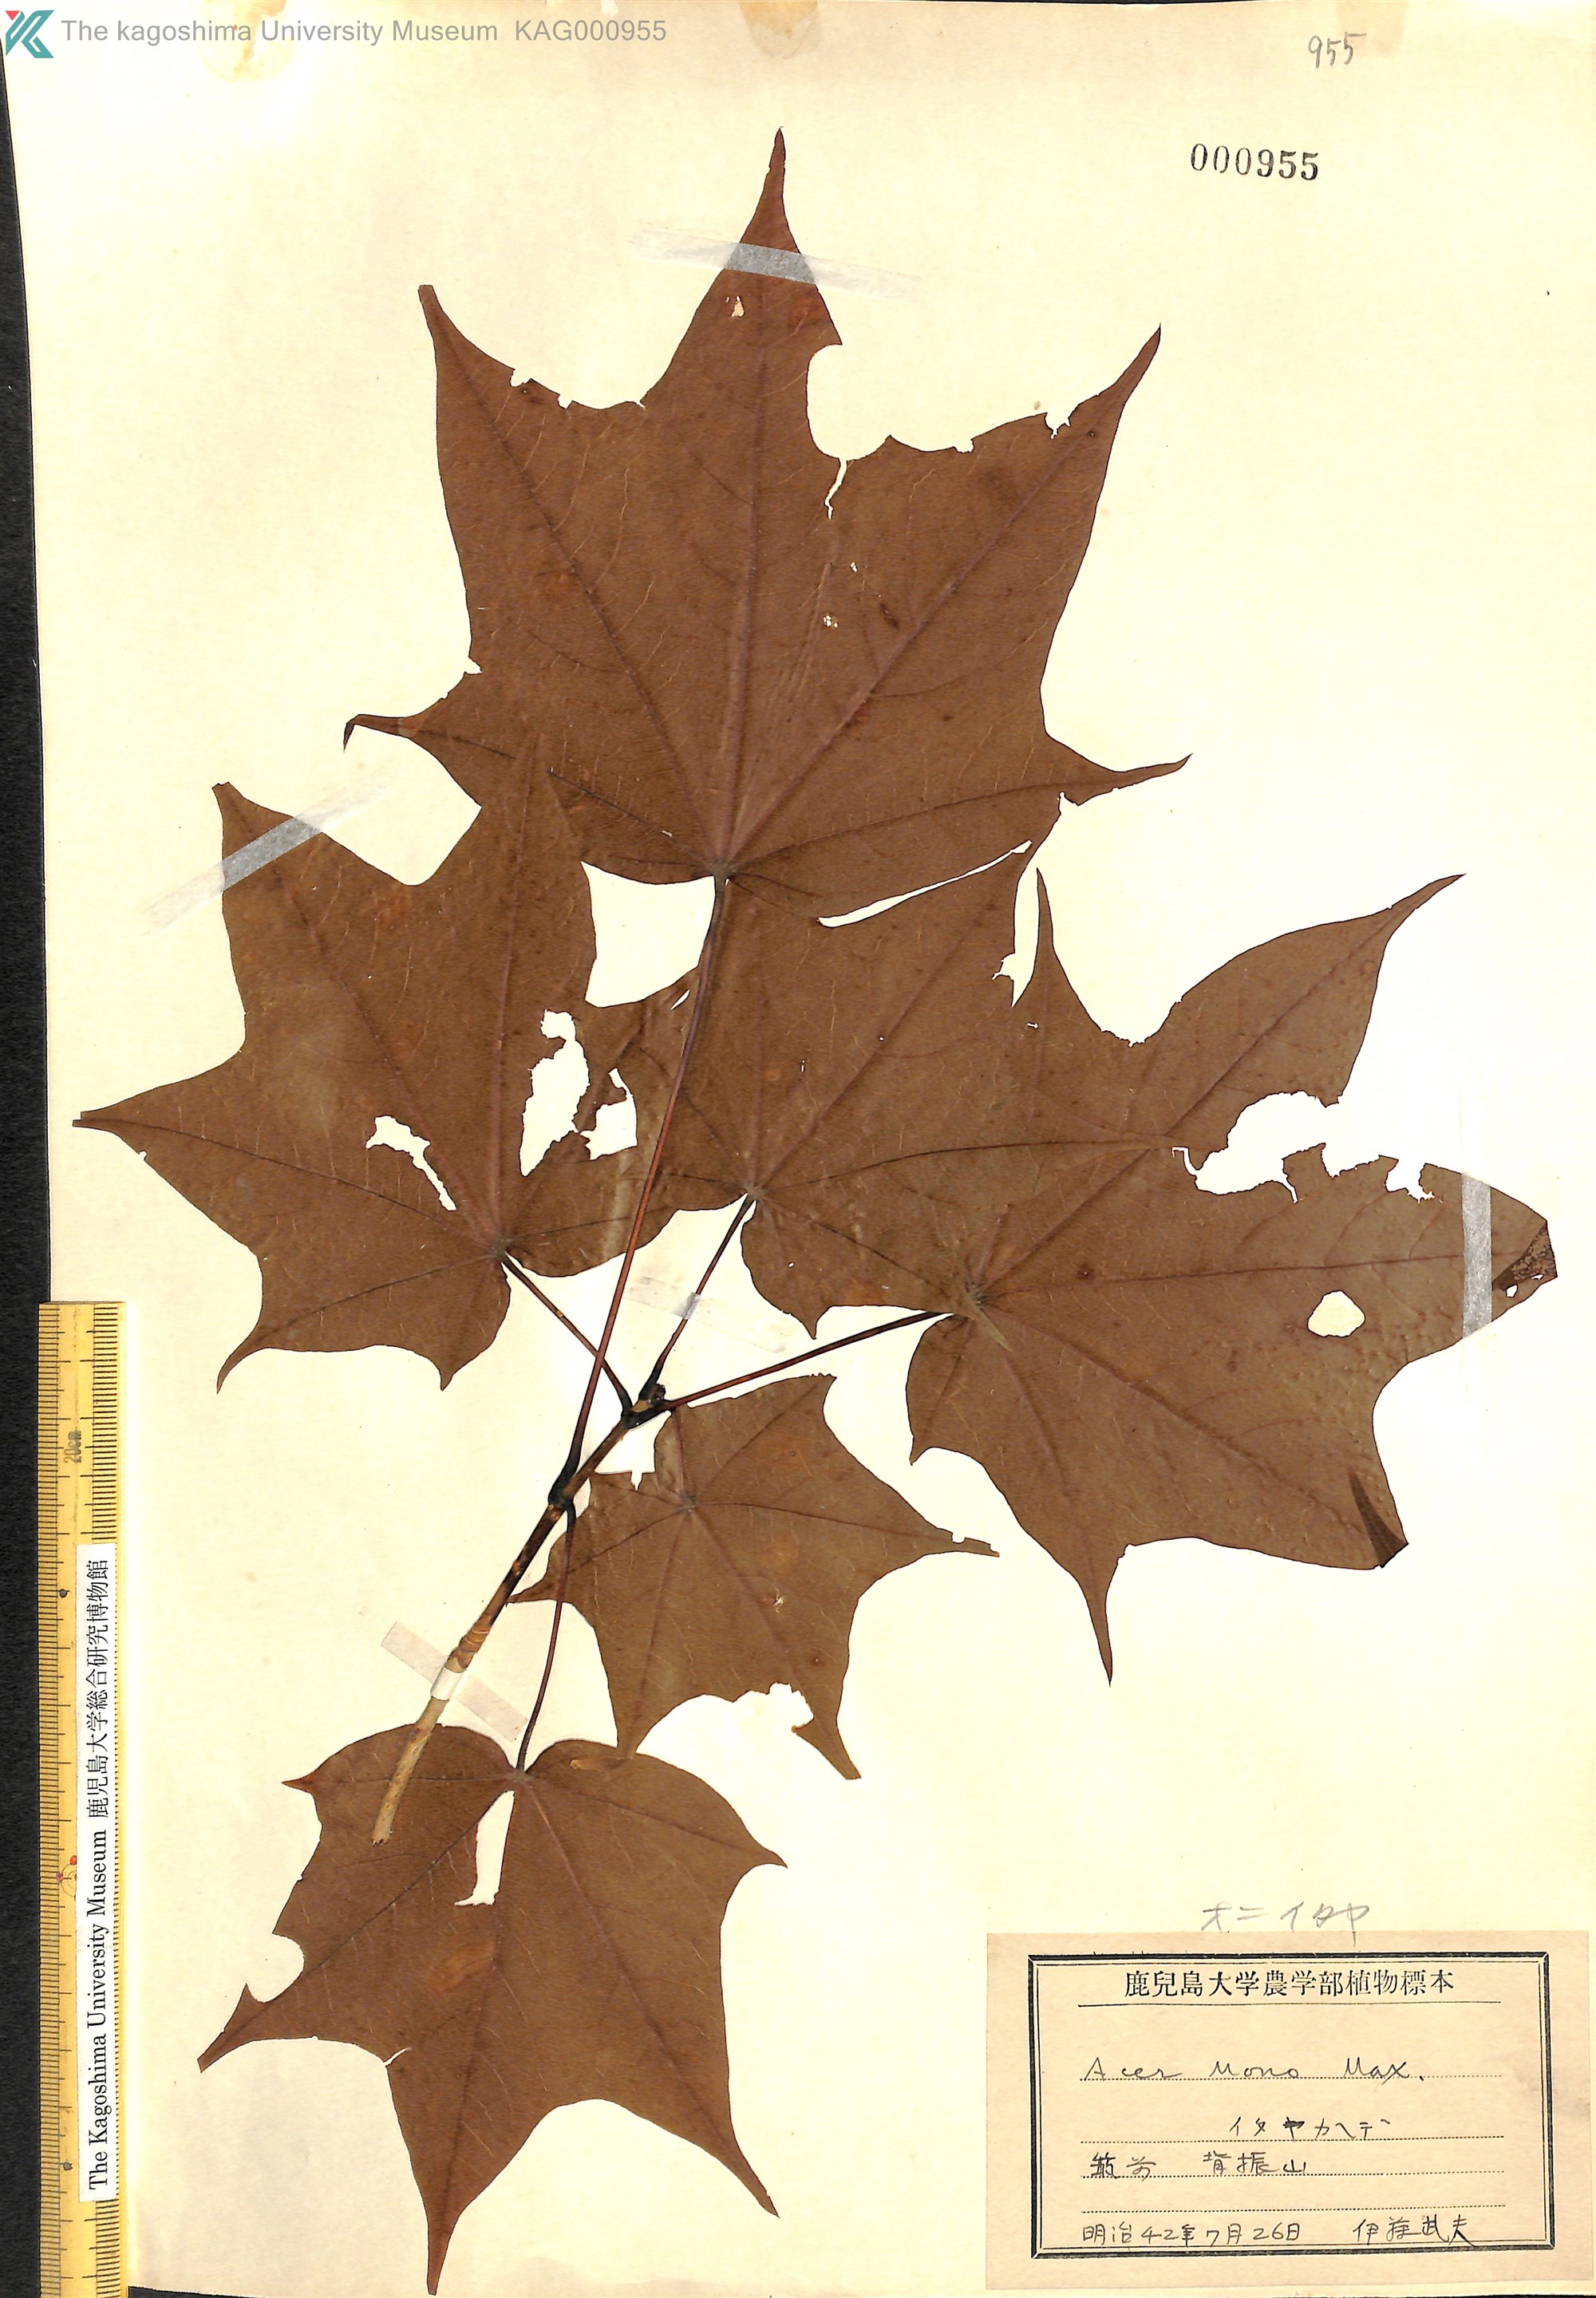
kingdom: Plantae
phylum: Tracheophyta
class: Magnoliopsida
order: Sapindales
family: Sapindaceae
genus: Acer
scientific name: Acer pictum
